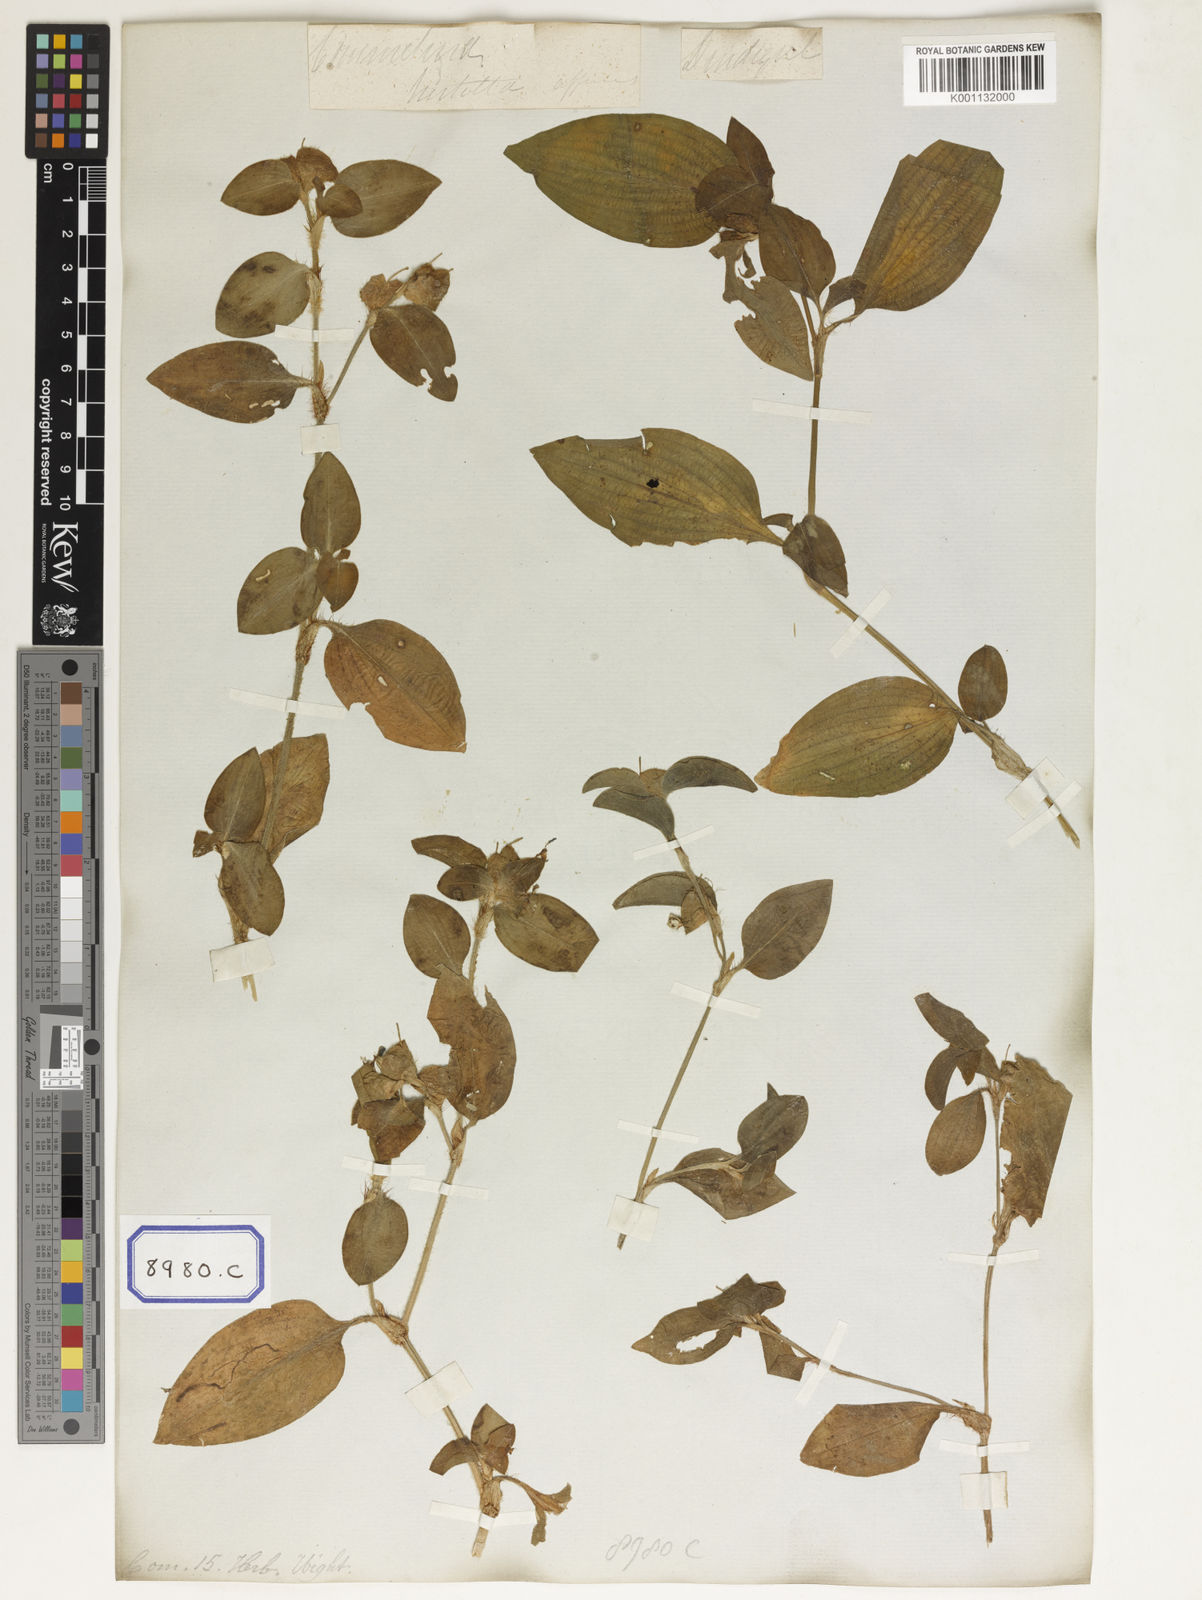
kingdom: Plantae
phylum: Tracheophyta
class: Liliopsida
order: Commelinales
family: Commelinaceae
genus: Commelina
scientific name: Commelina benghalensis
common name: Jio
